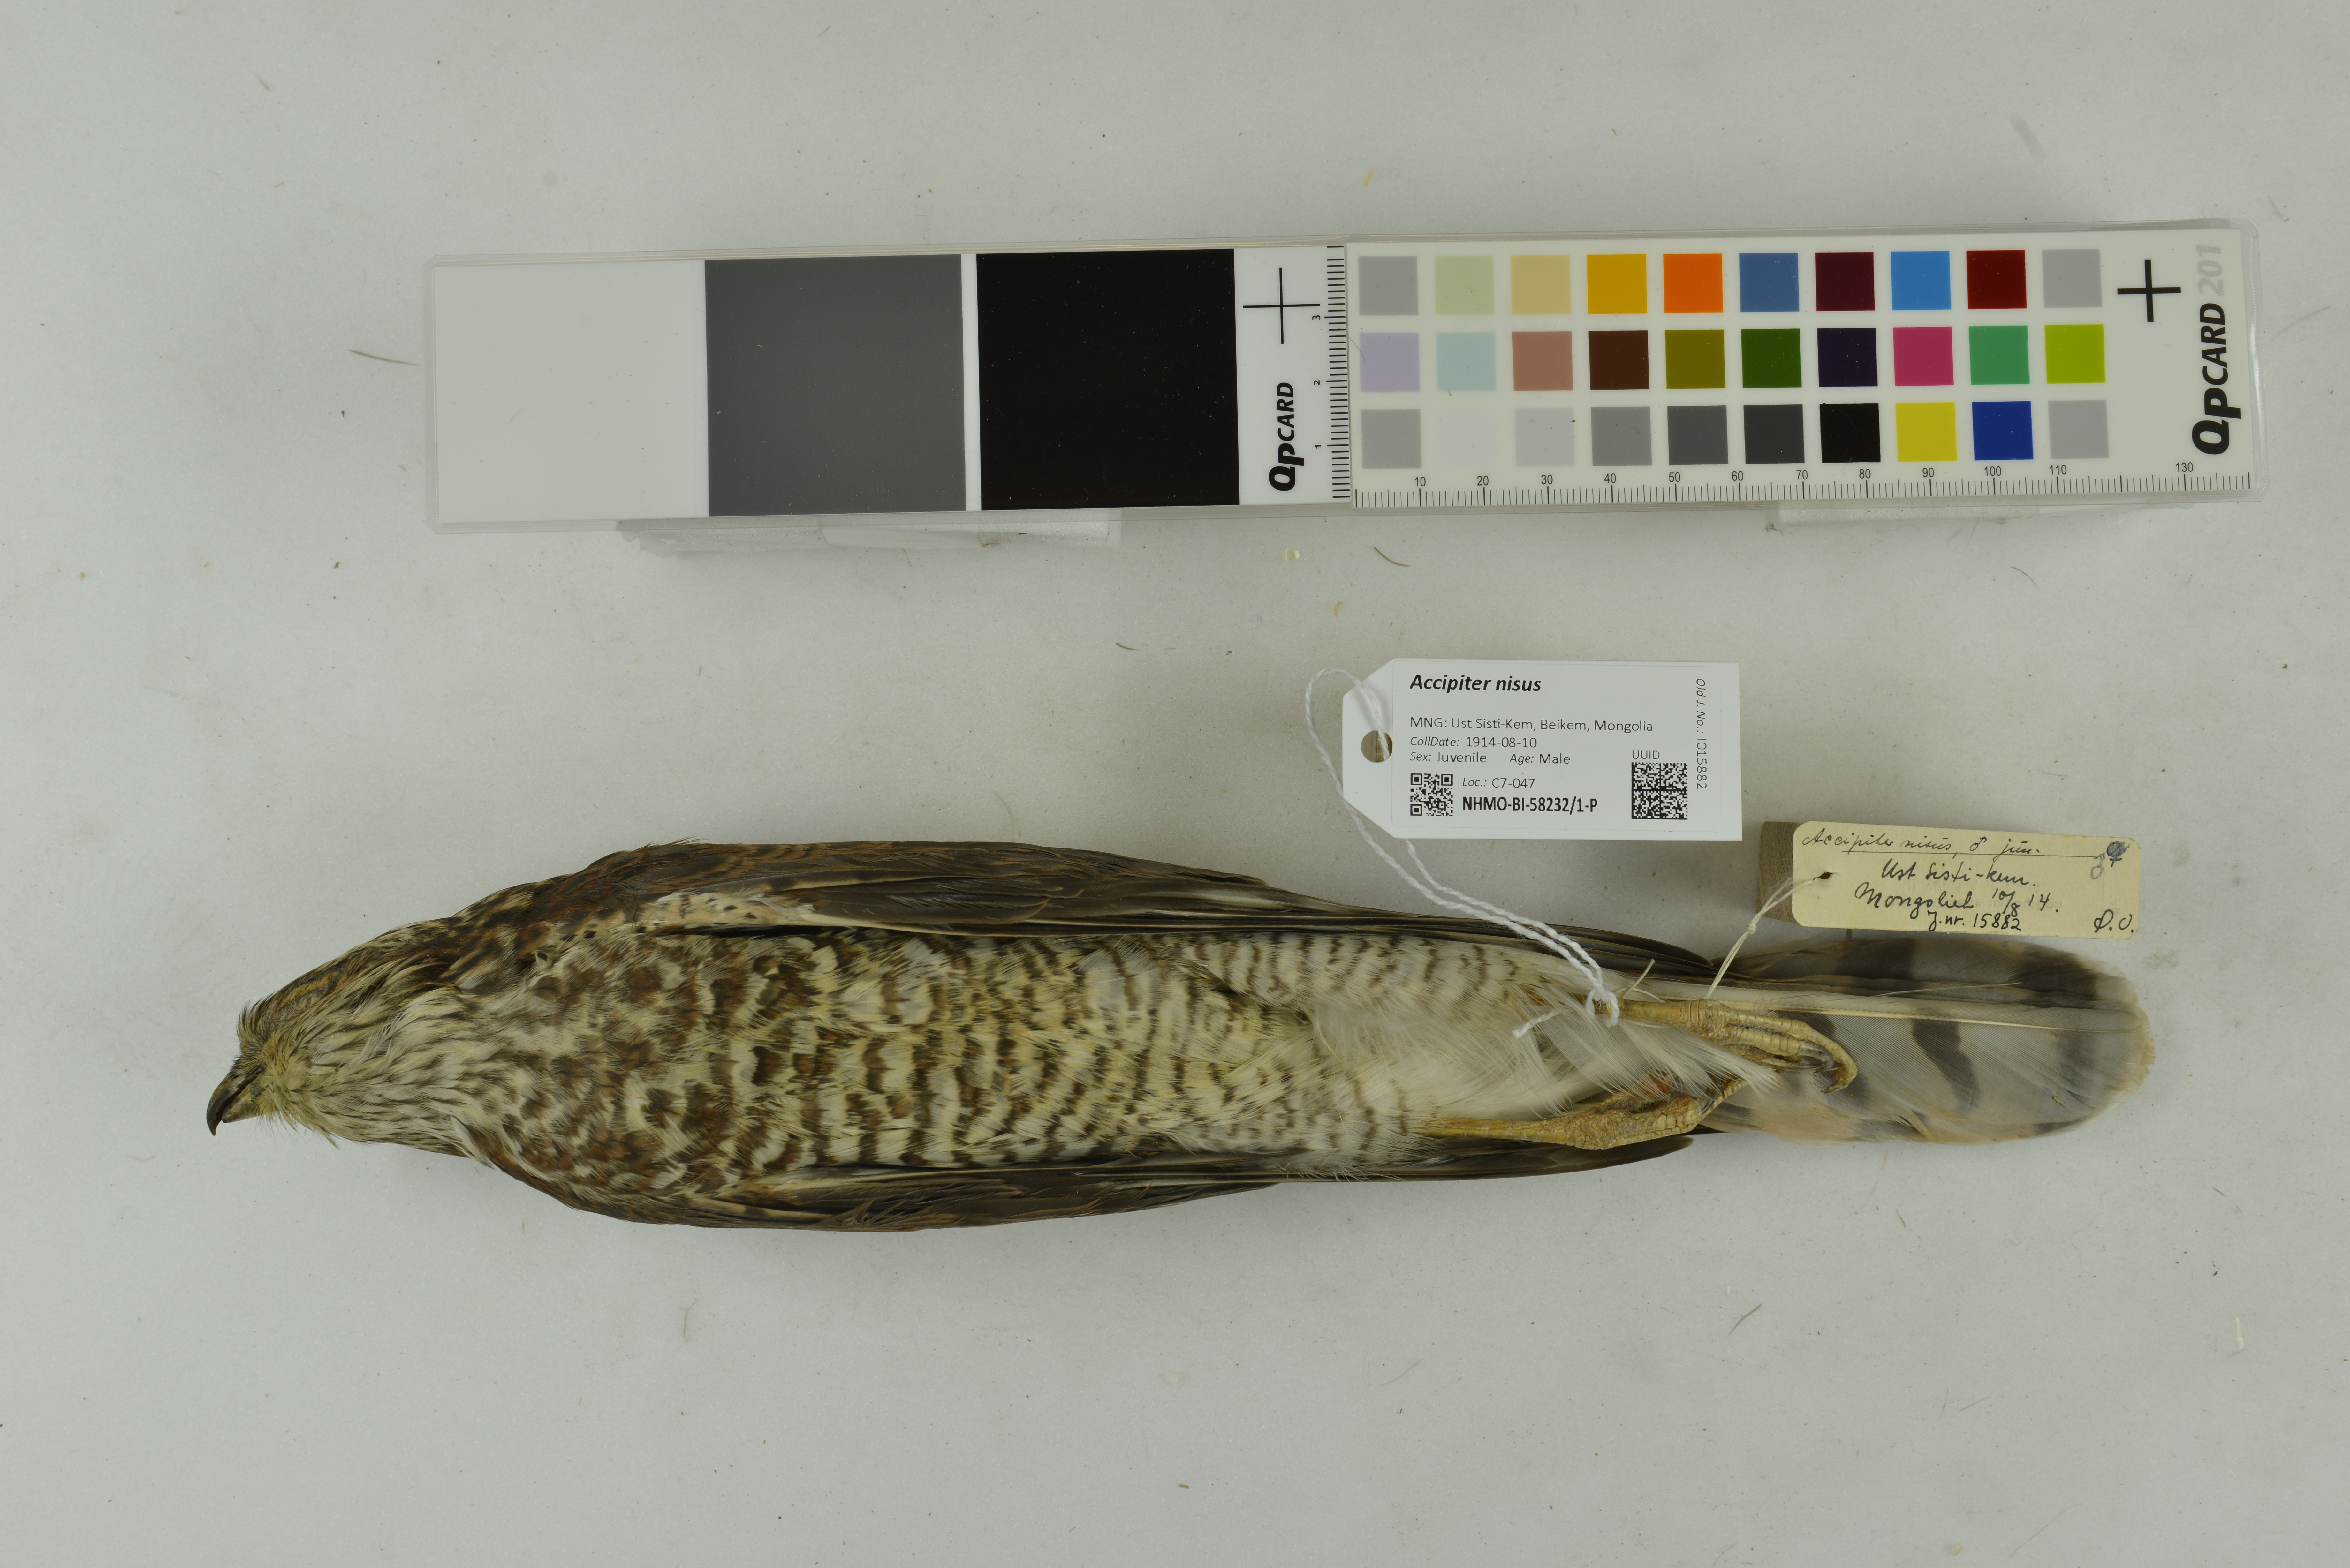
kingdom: Animalia
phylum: Chordata
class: Aves
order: Accipitriformes
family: Accipitridae
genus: Accipiter
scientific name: Accipiter nisus
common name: Eurasian sparrowhawk
